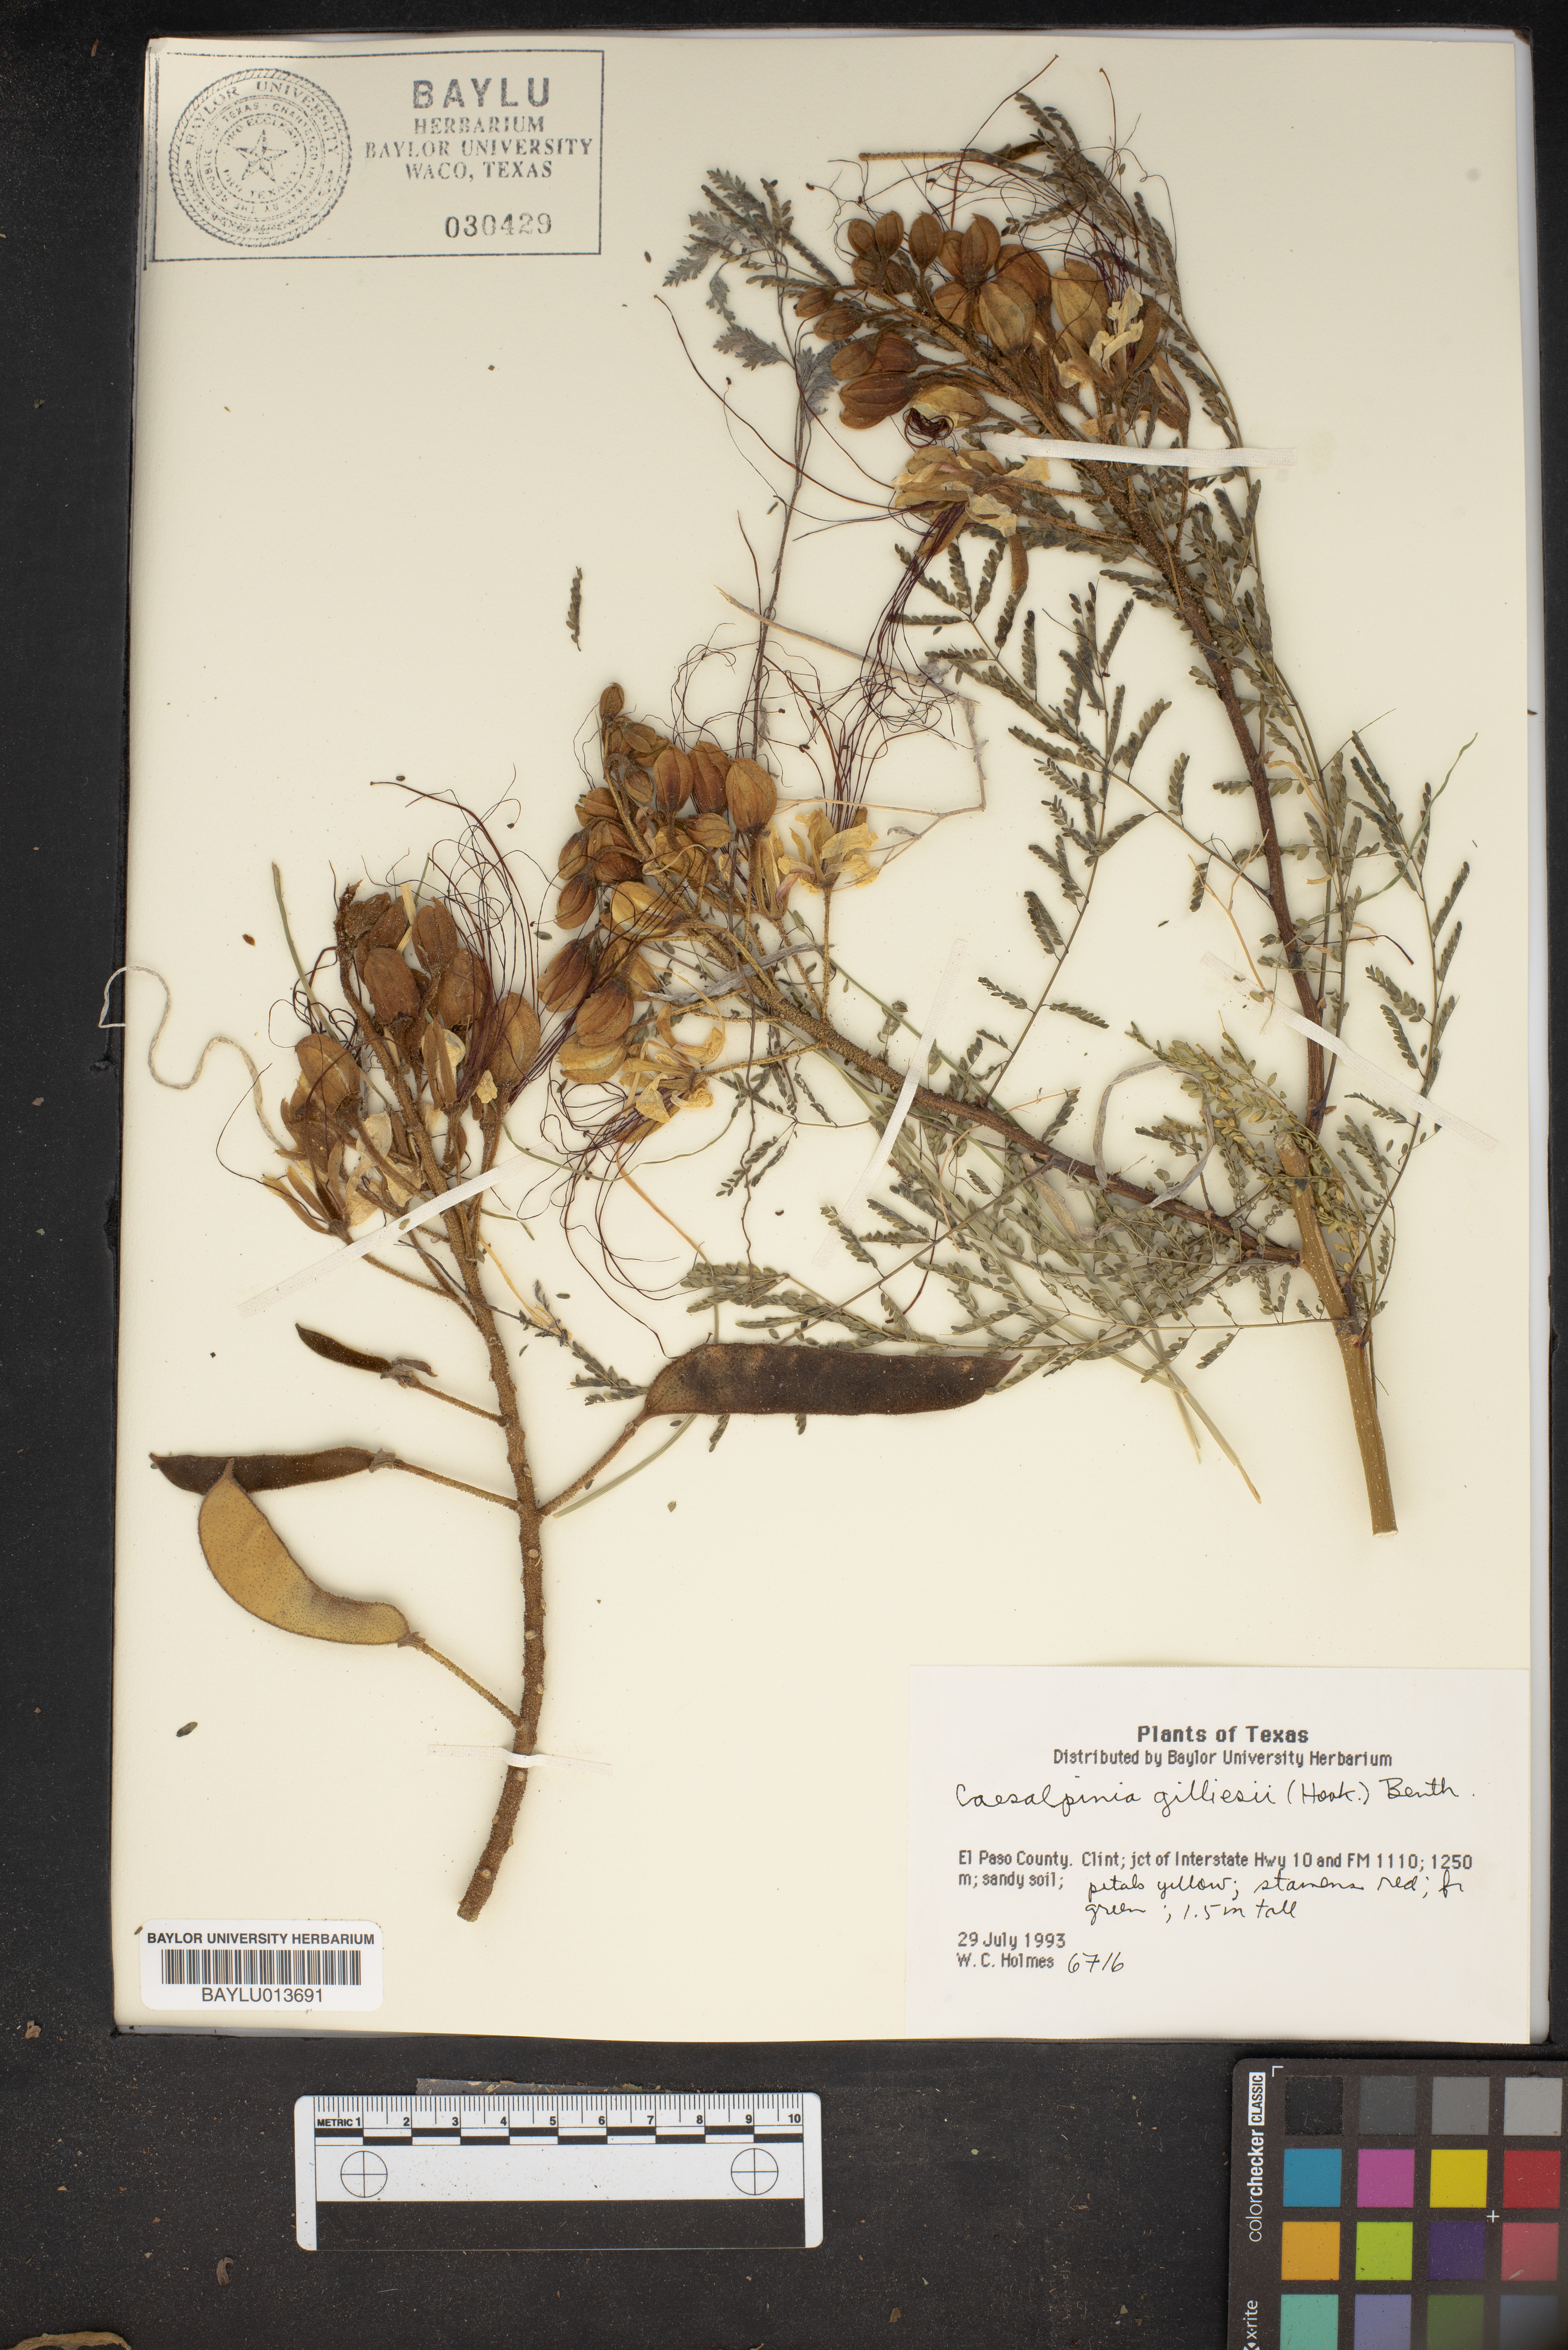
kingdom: Plantae
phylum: Tracheophyta
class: Magnoliopsida
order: Fabales
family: Fabaceae
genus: Erythrostemon
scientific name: Erythrostemon gilliesii
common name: Bird-of-paradise shrub
